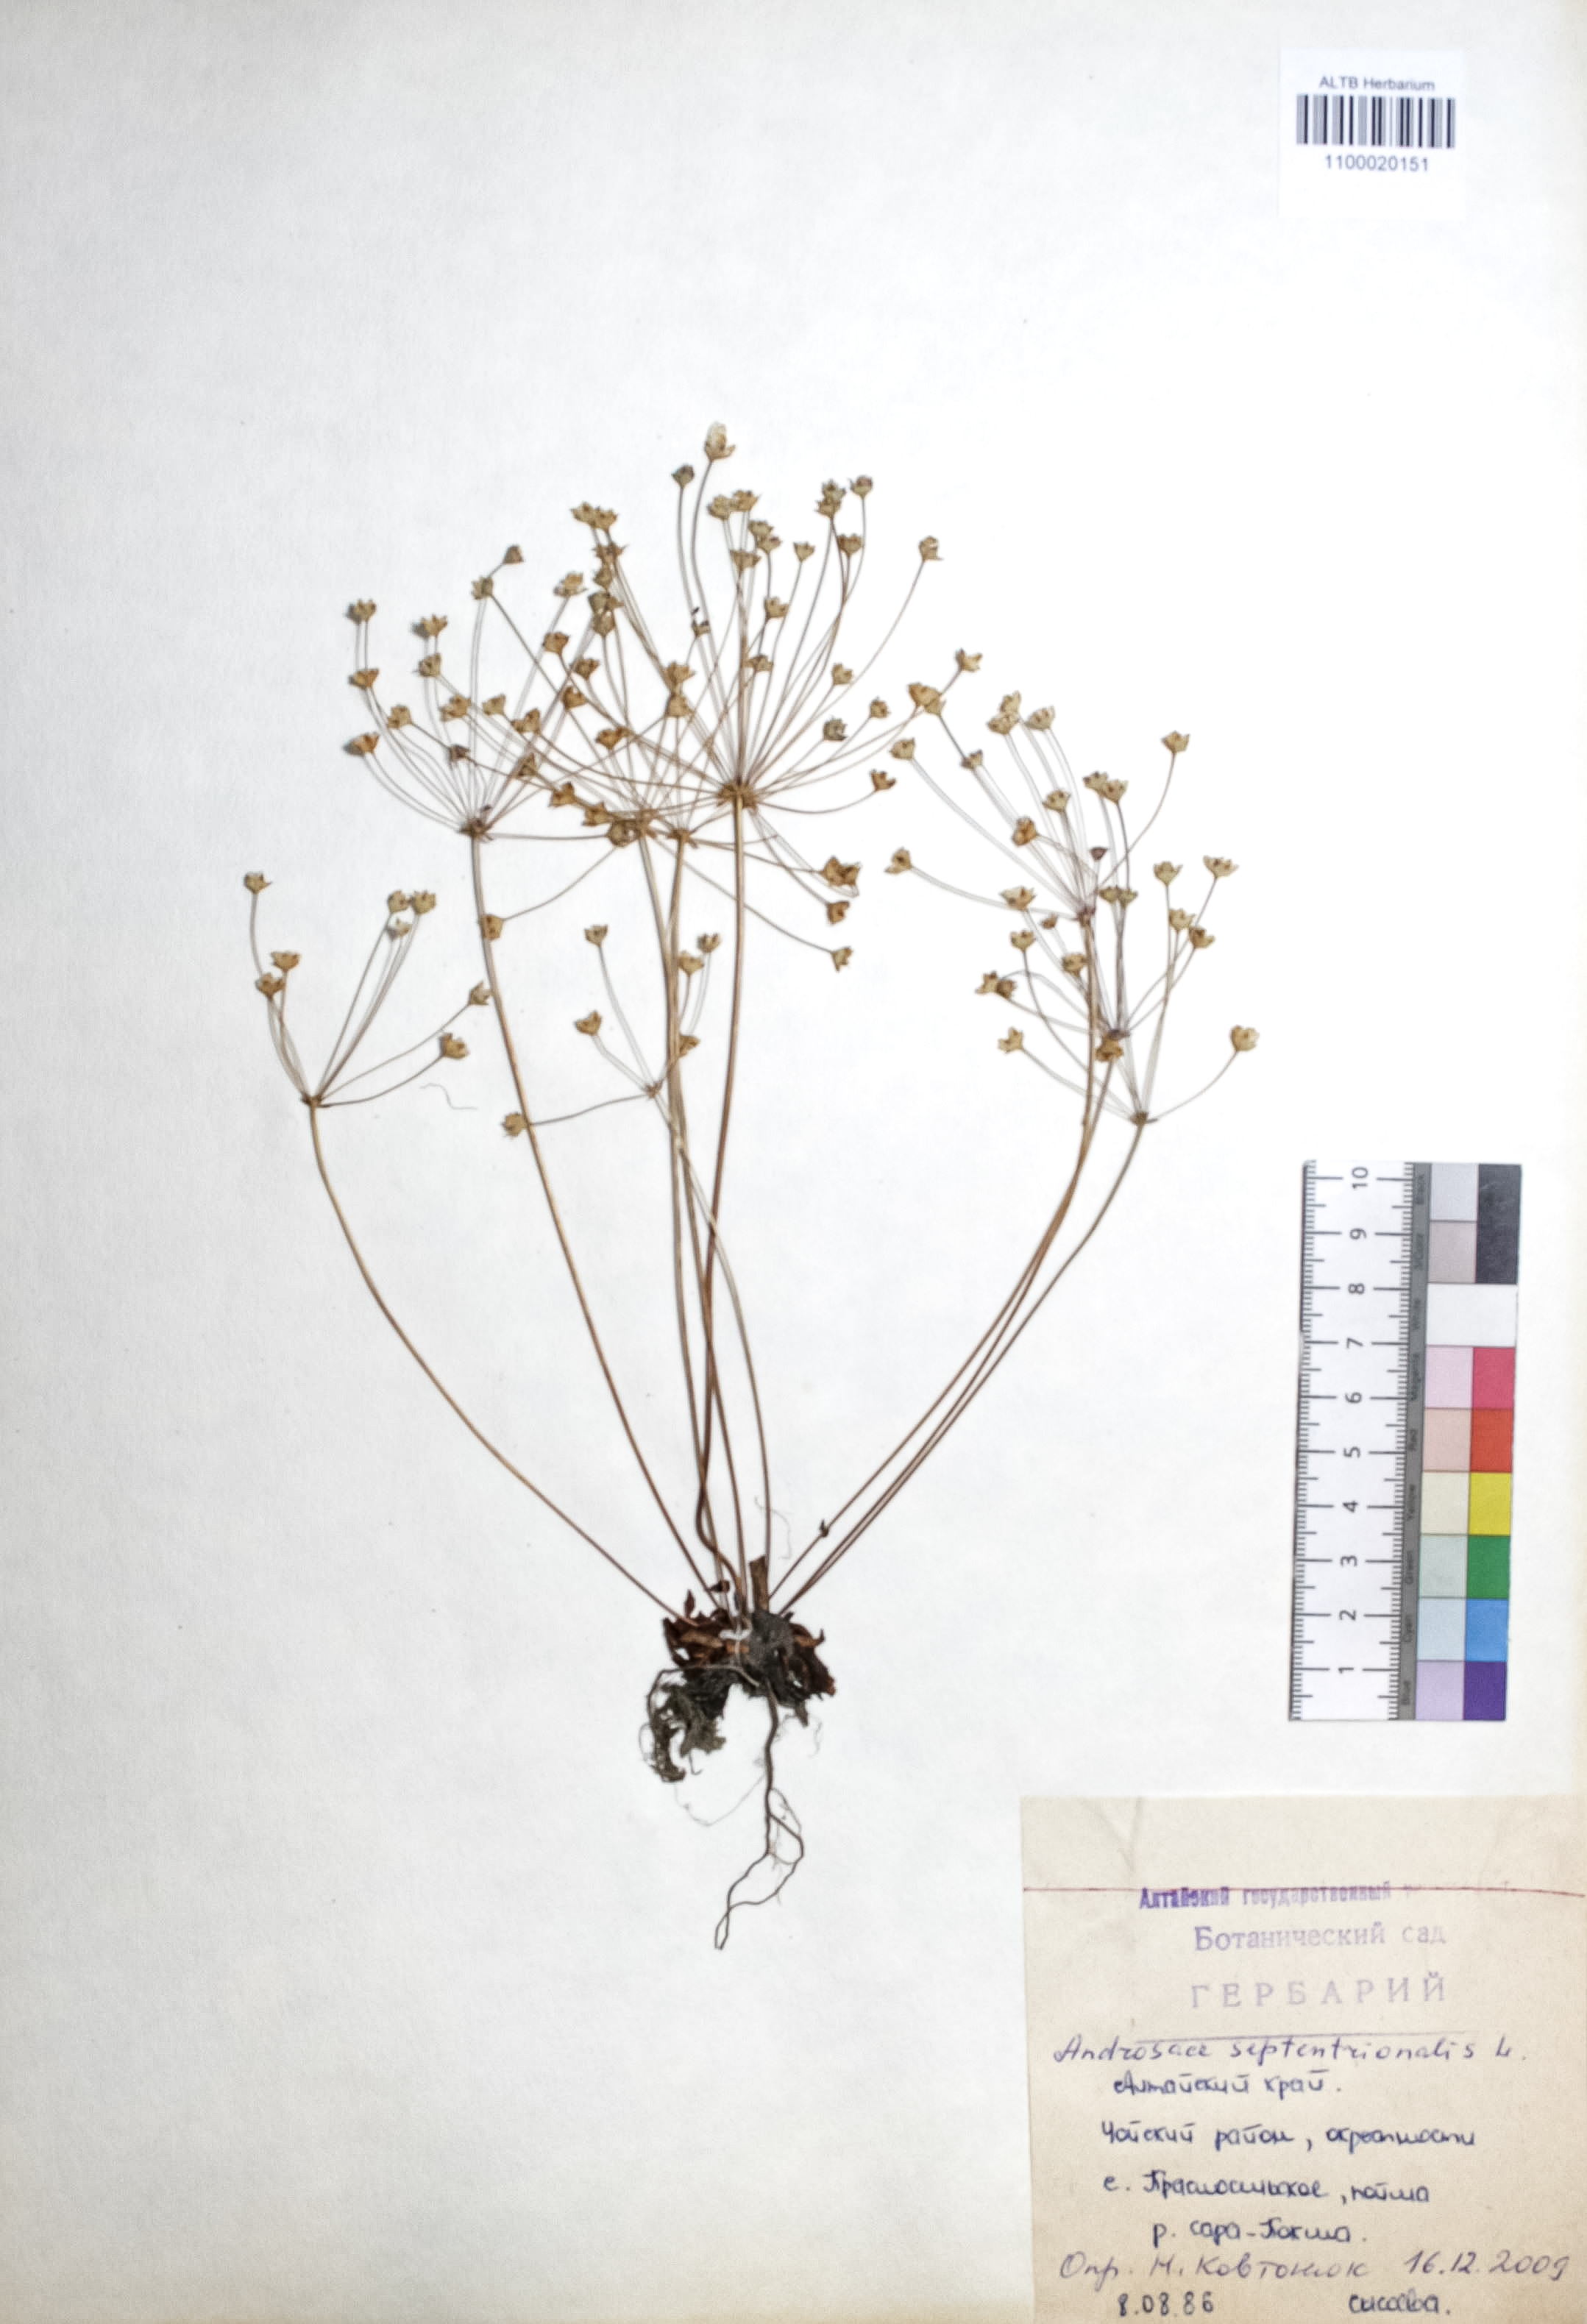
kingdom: Plantae
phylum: Tracheophyta
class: Magnoliopsida
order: Ericales
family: Primulaceae
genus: Androsace
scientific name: Androsace septentrionalis
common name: Hairy northern fairy-candelabra
